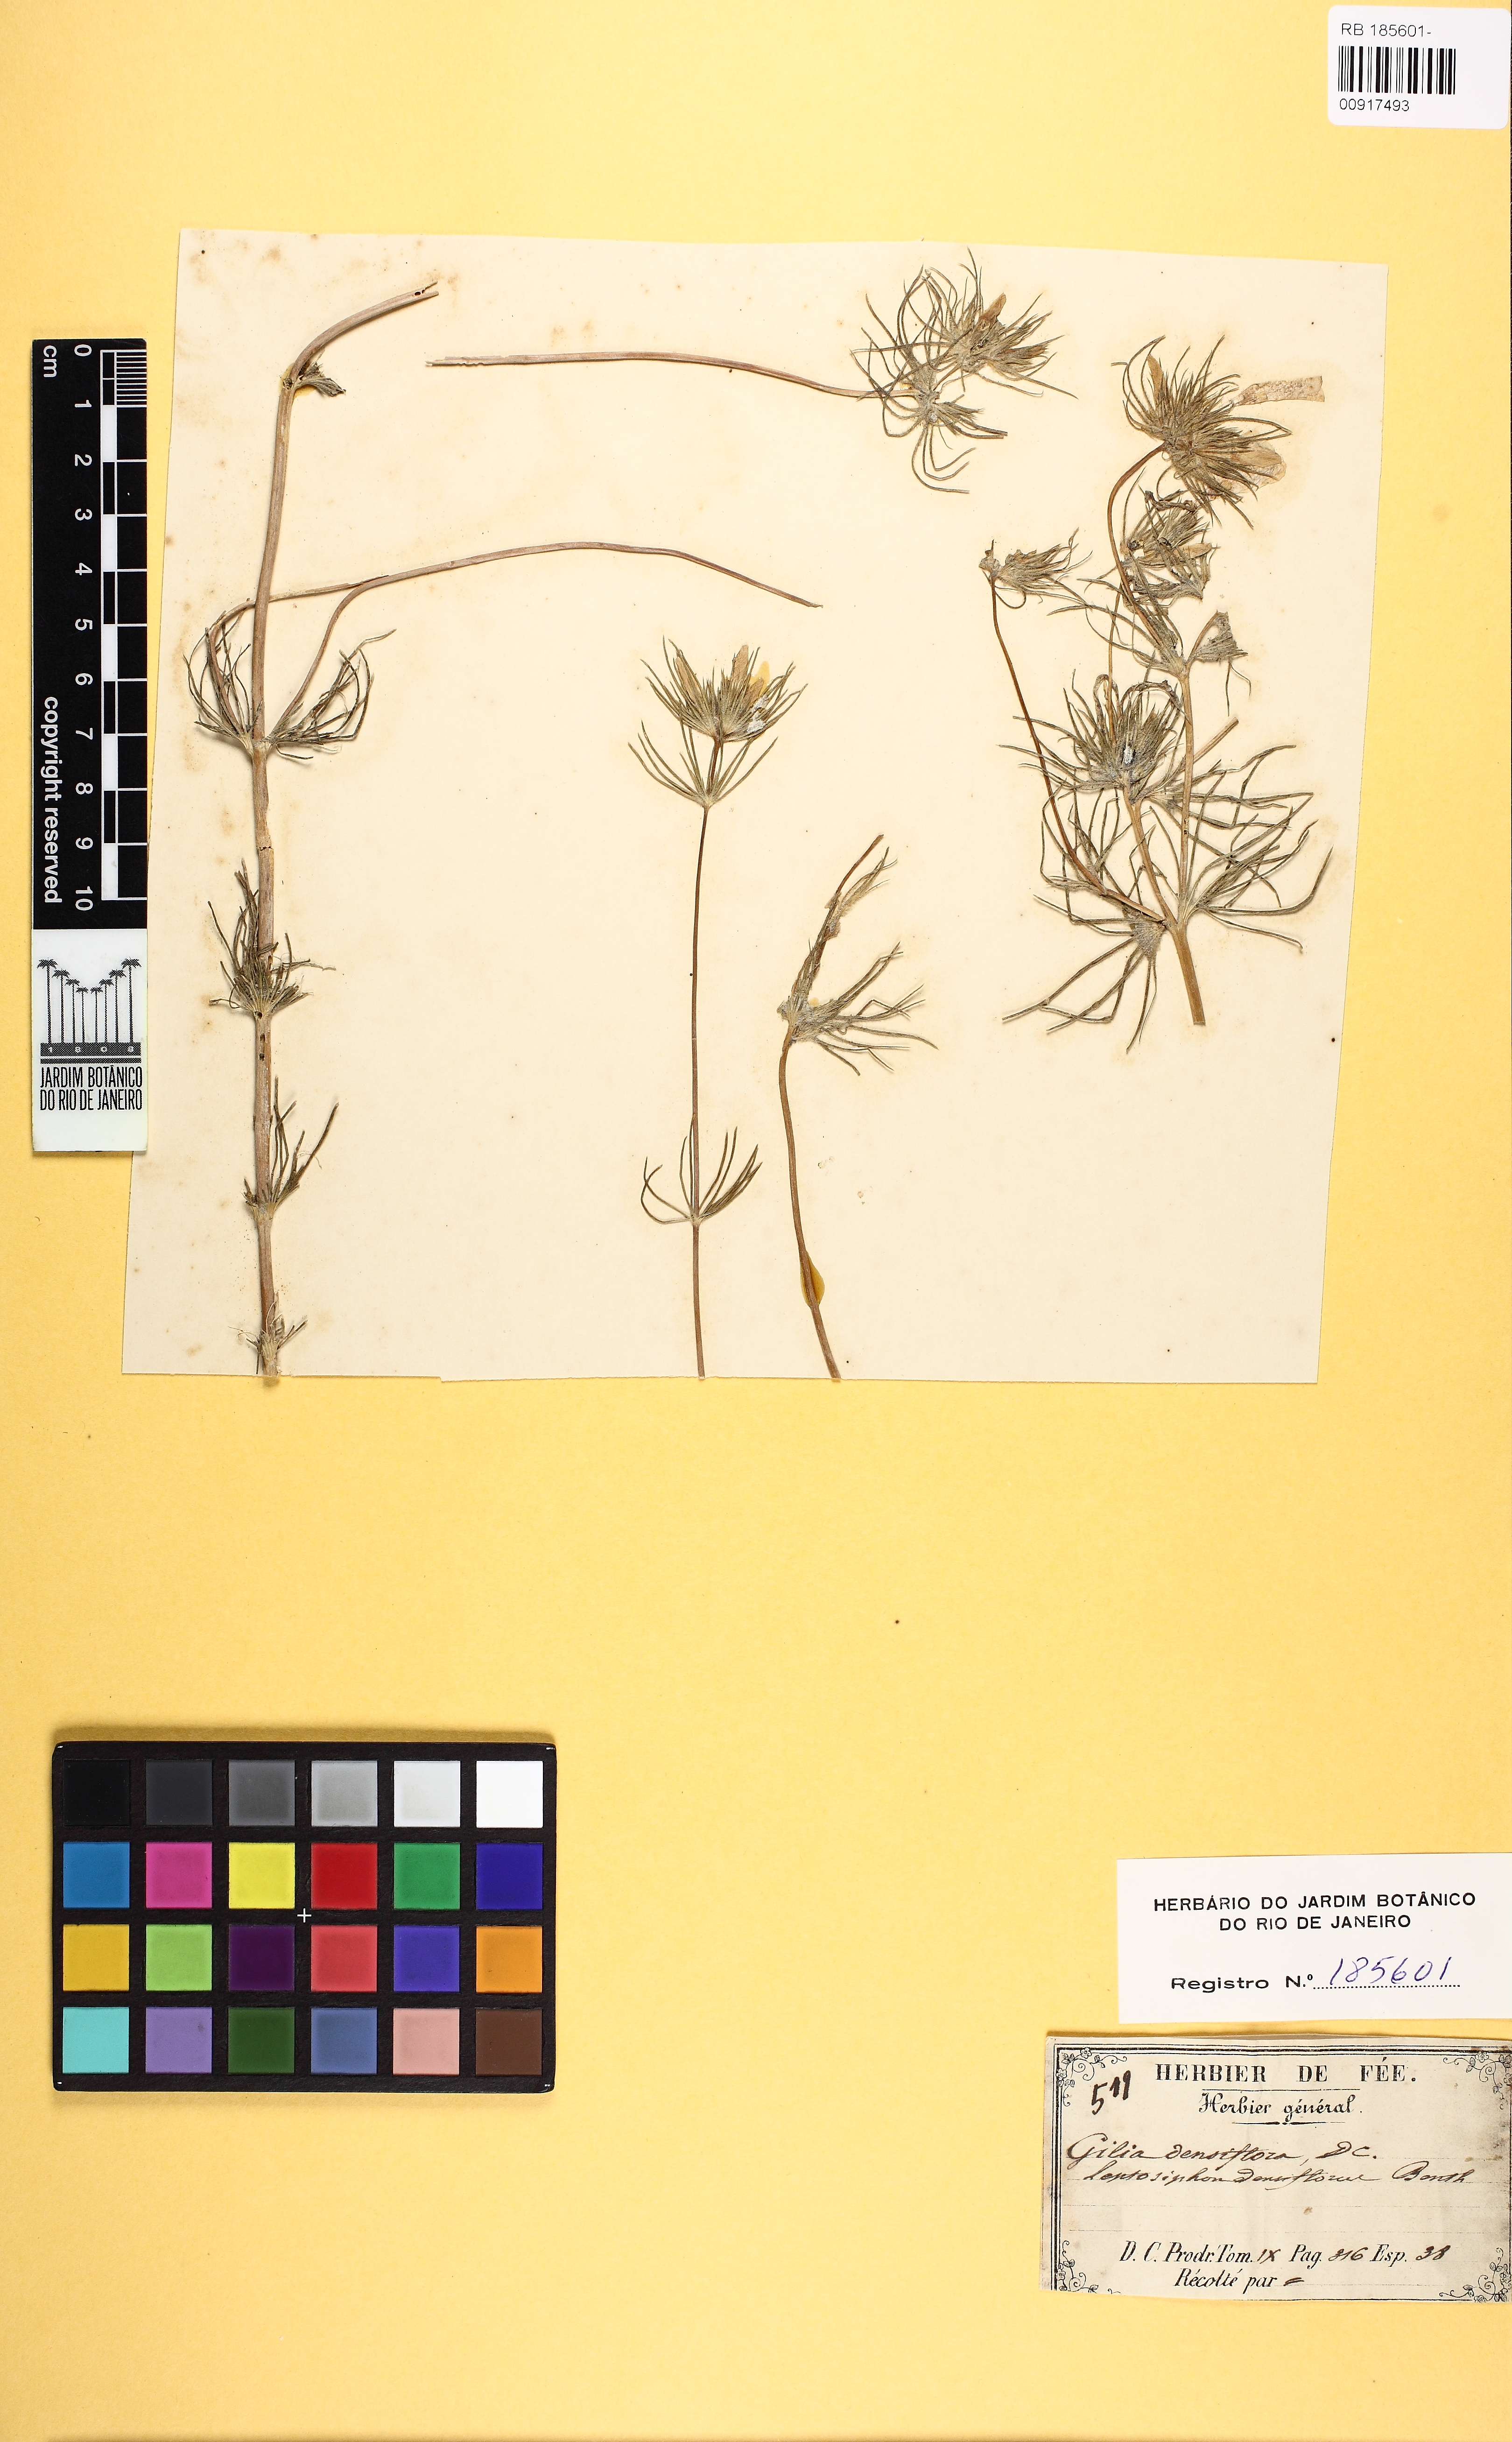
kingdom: Plantae
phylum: Tracheophyta
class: Magnoliopsida
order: Ericales
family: Polemoniaceae
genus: Eriastrum
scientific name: Eriastrum densifolium
